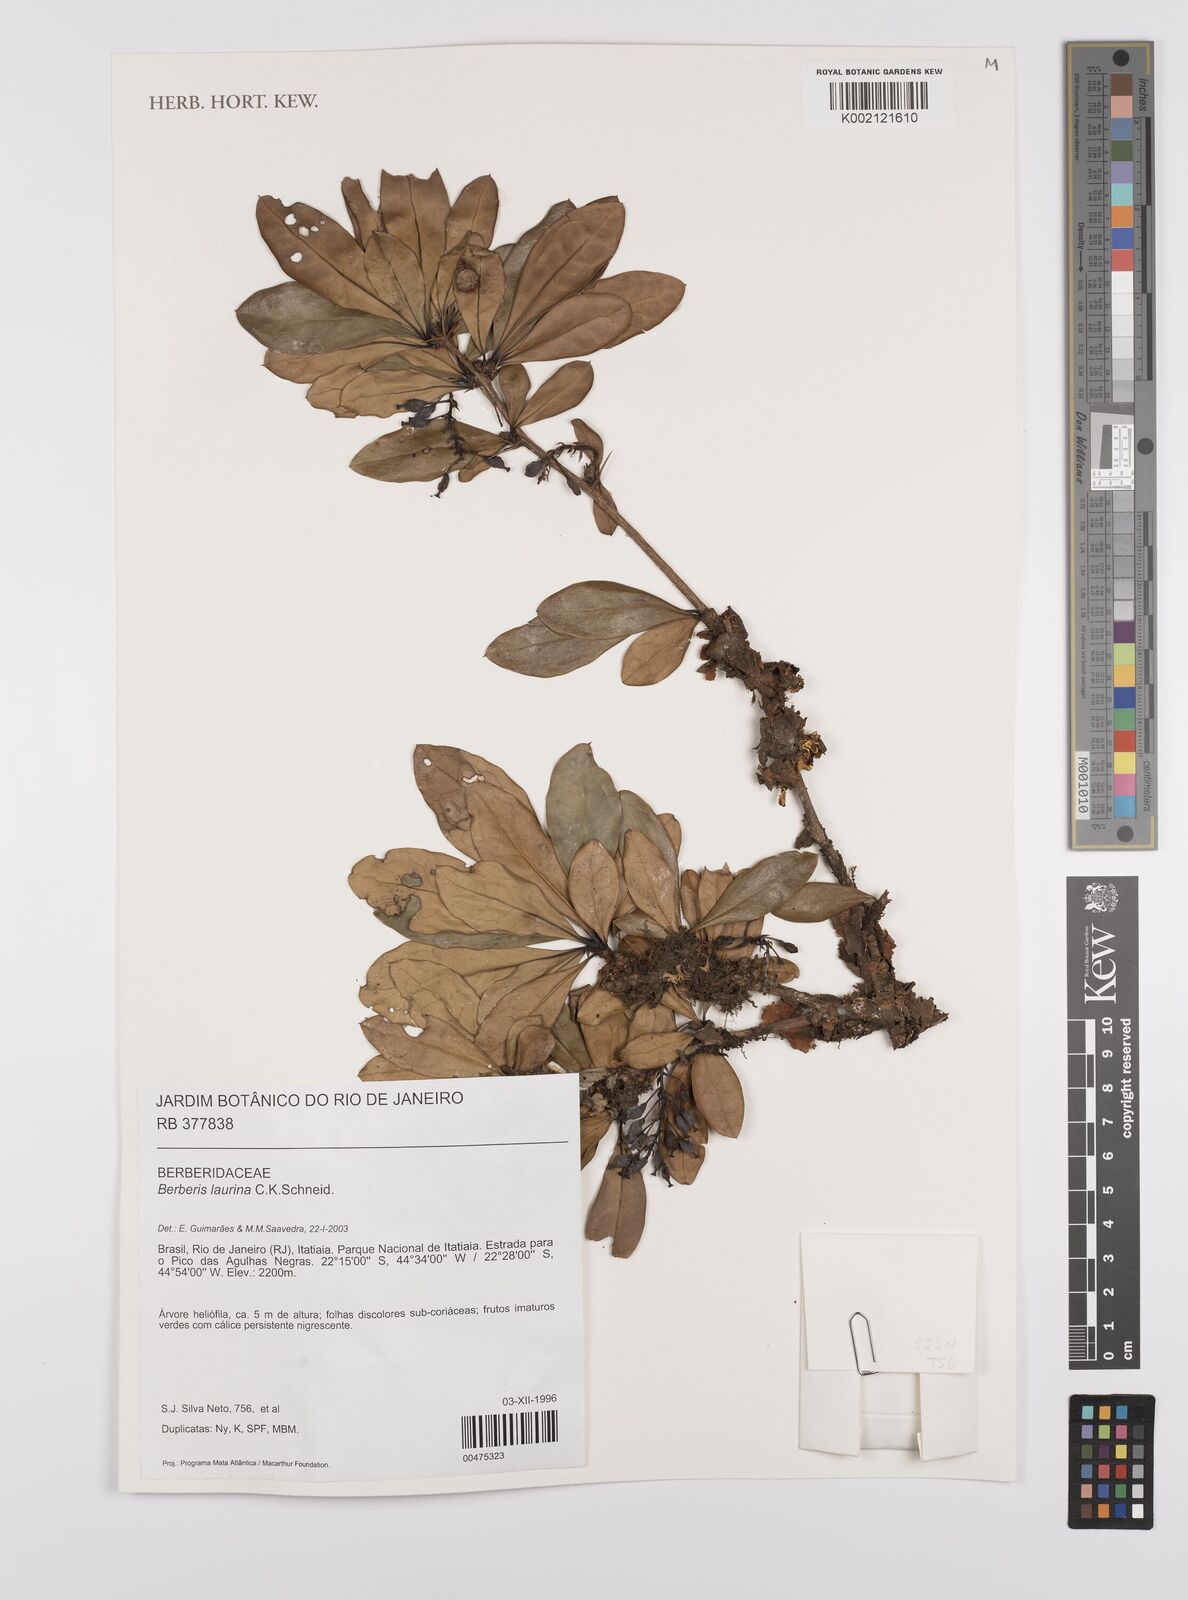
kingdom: Plantae
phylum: Tracheophyta
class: Magnoliopsida
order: Ranunculales
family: Berberidaceae
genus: Berberis
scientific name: Berberis laurina
